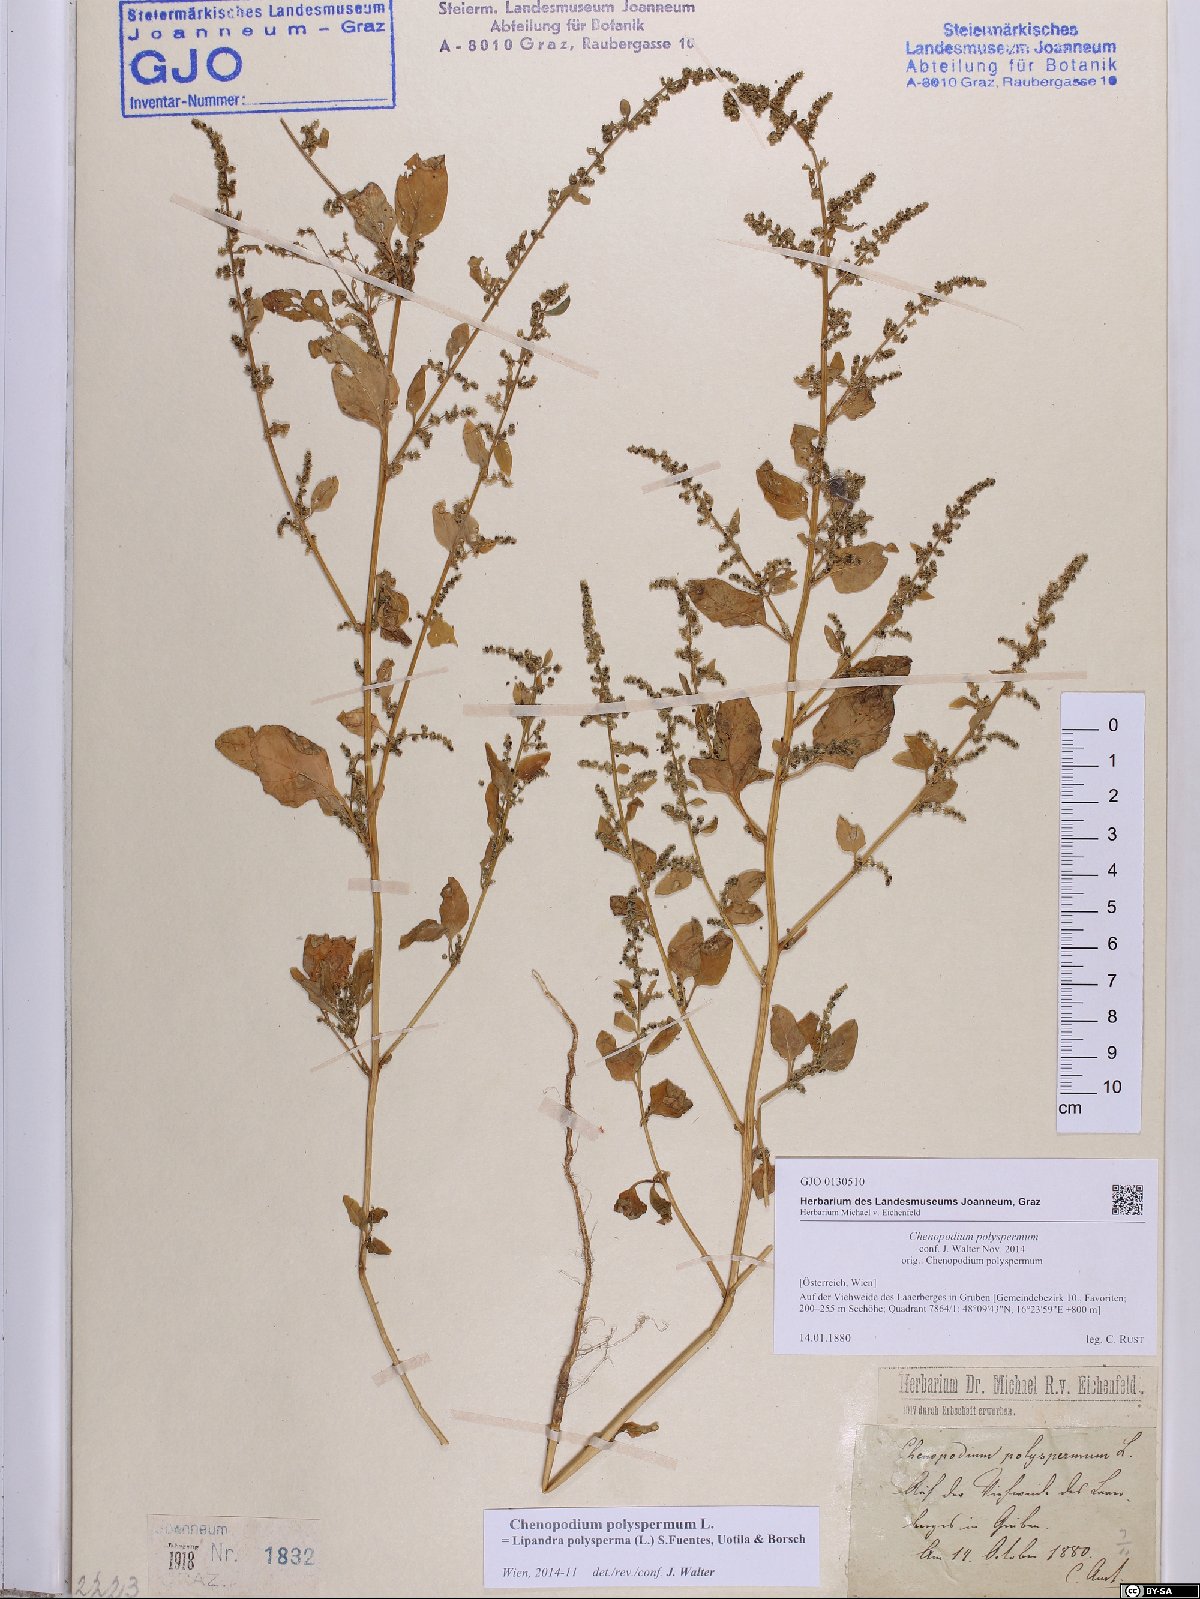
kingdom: Plantae
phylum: Tracheophyta
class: Magnoliopsida
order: Caryophyllales
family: Amaranthaceae
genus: Lipandra
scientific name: Lipandra polysperma
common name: Many-seed goosefoot
